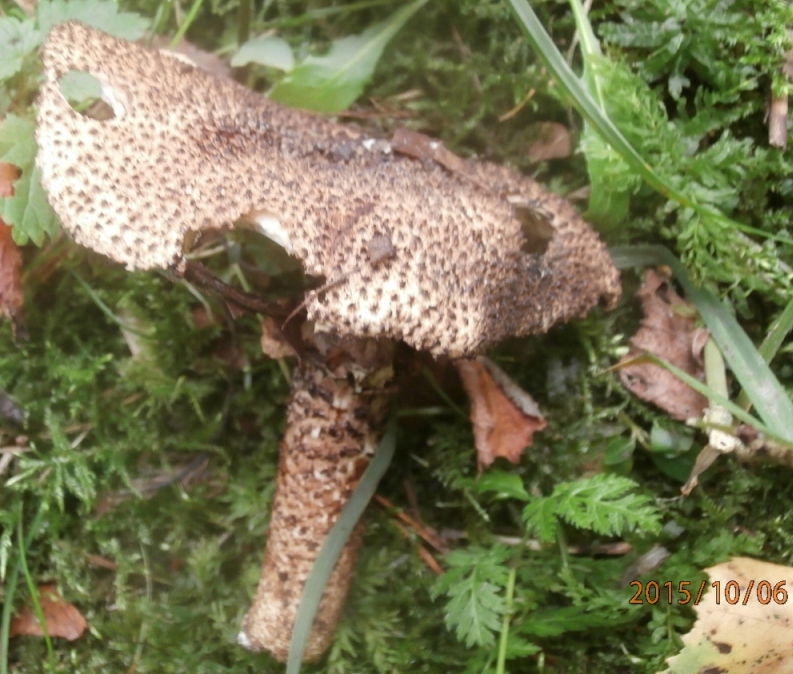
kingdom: Fungi
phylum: Basidiomycota
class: Agaricomycetes
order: Agaricales
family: Agaricaceae
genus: Echinoderma
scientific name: Echinoderma hystrix
